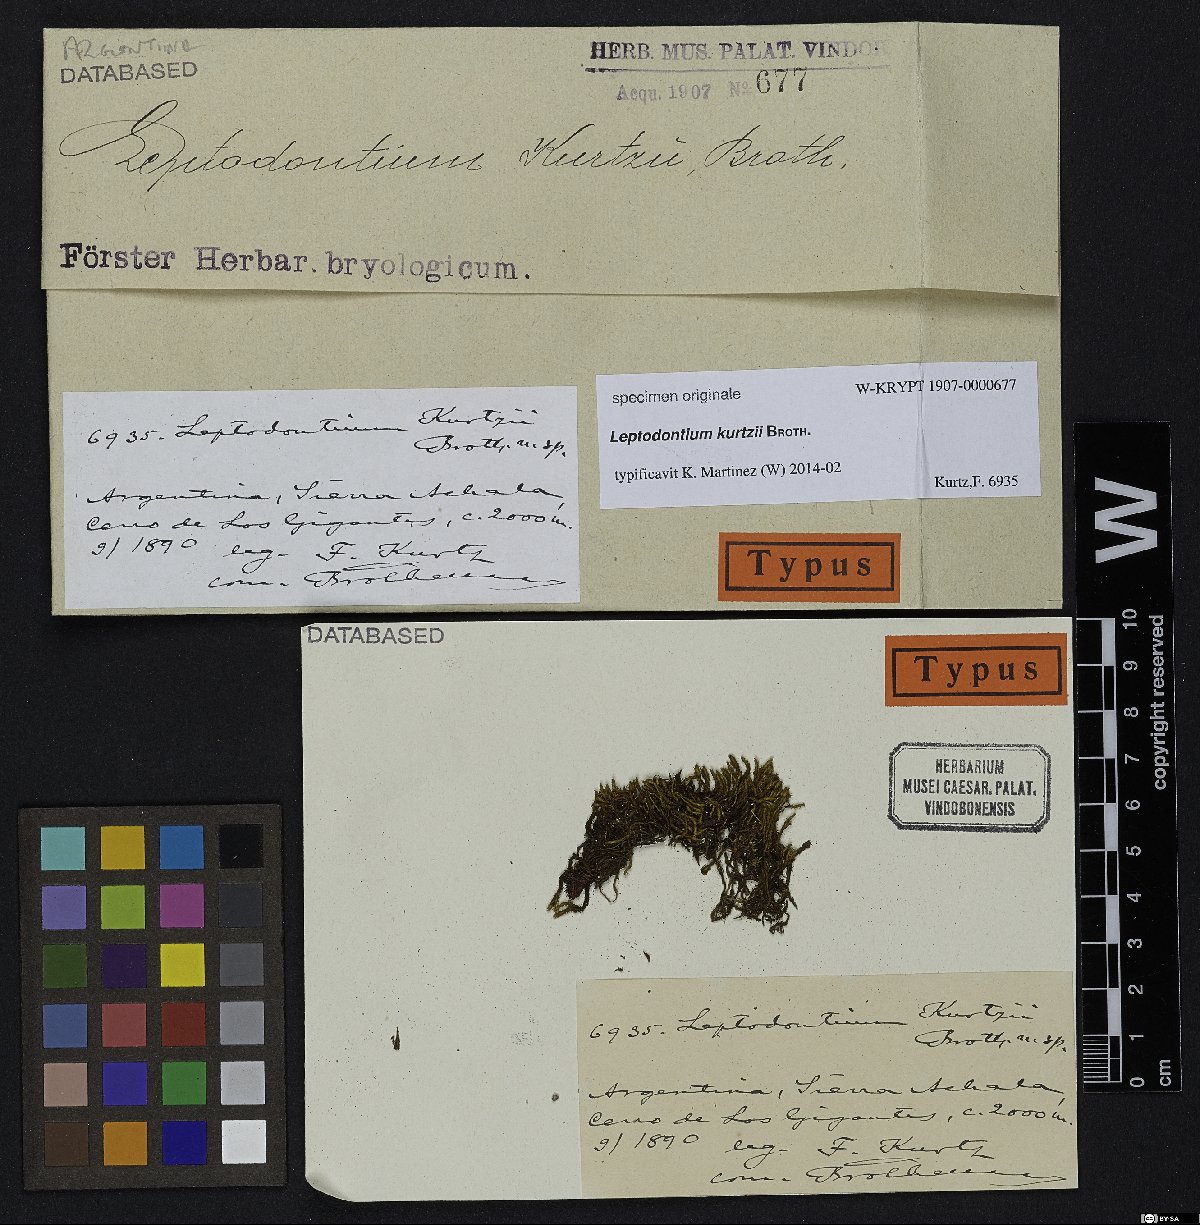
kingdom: Plantae
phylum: Bryophyta
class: Bryopsida
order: Pottiales
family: Pottiaceae
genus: Leptodontium
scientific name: Leptodontium
